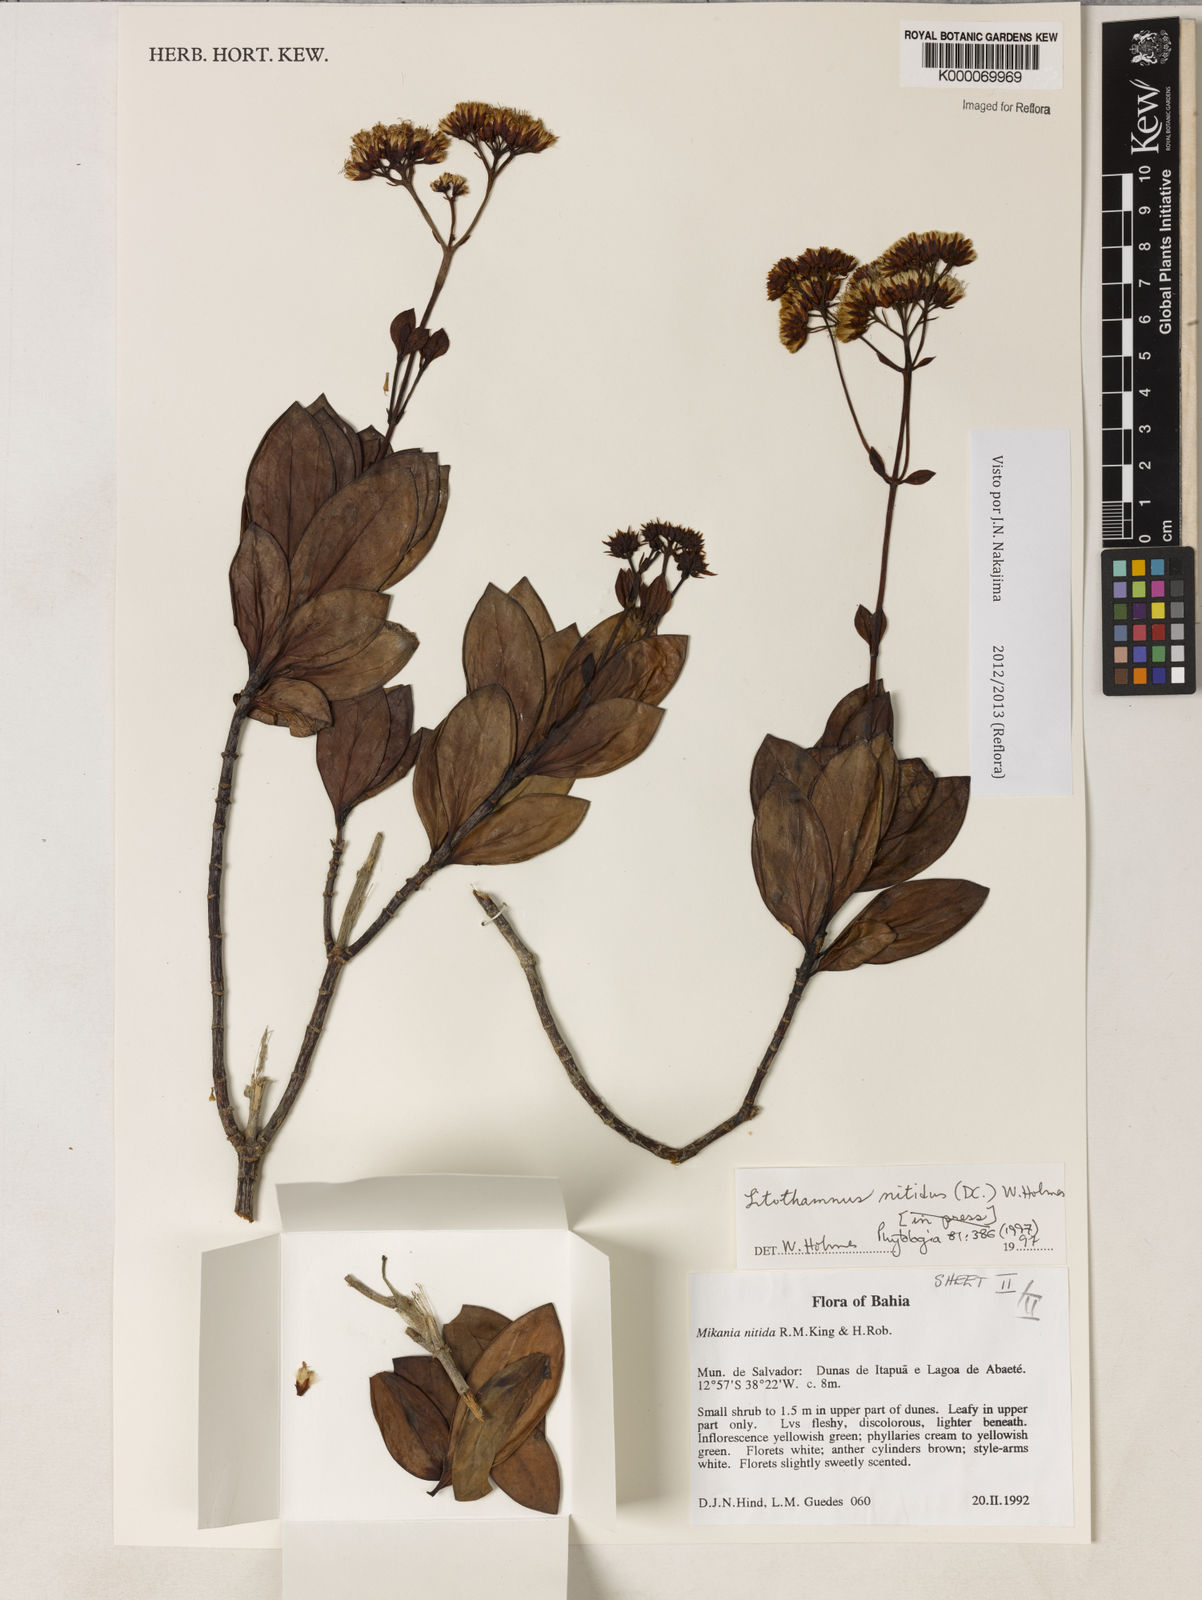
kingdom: Plantae
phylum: Tracheophyta
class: Magnoliopsida
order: Asterales
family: Asteraceae
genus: Litothamnus
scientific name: Litothamnus nitidus
